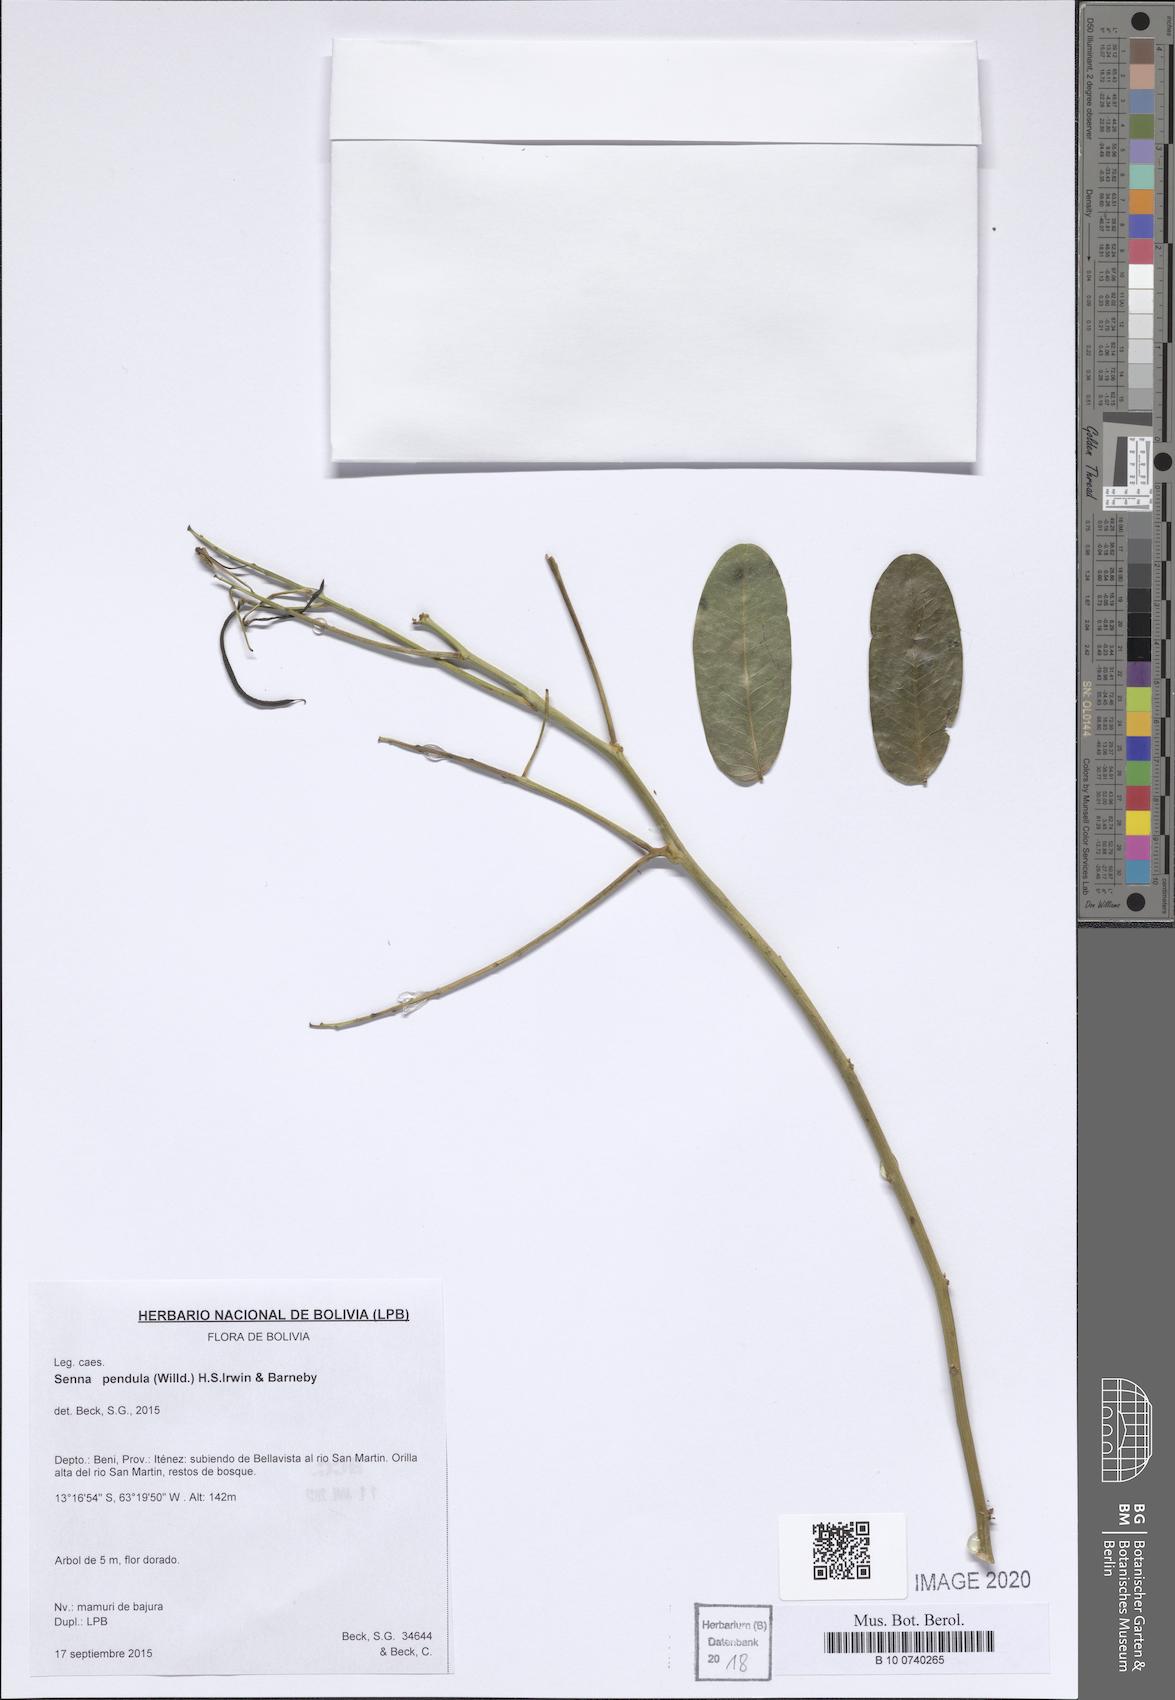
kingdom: Plantae
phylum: Tracheophyta
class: Magnoliopsida
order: Fabales
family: Fabaceae
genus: Senna
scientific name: Senna pendula
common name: Easter cassia
